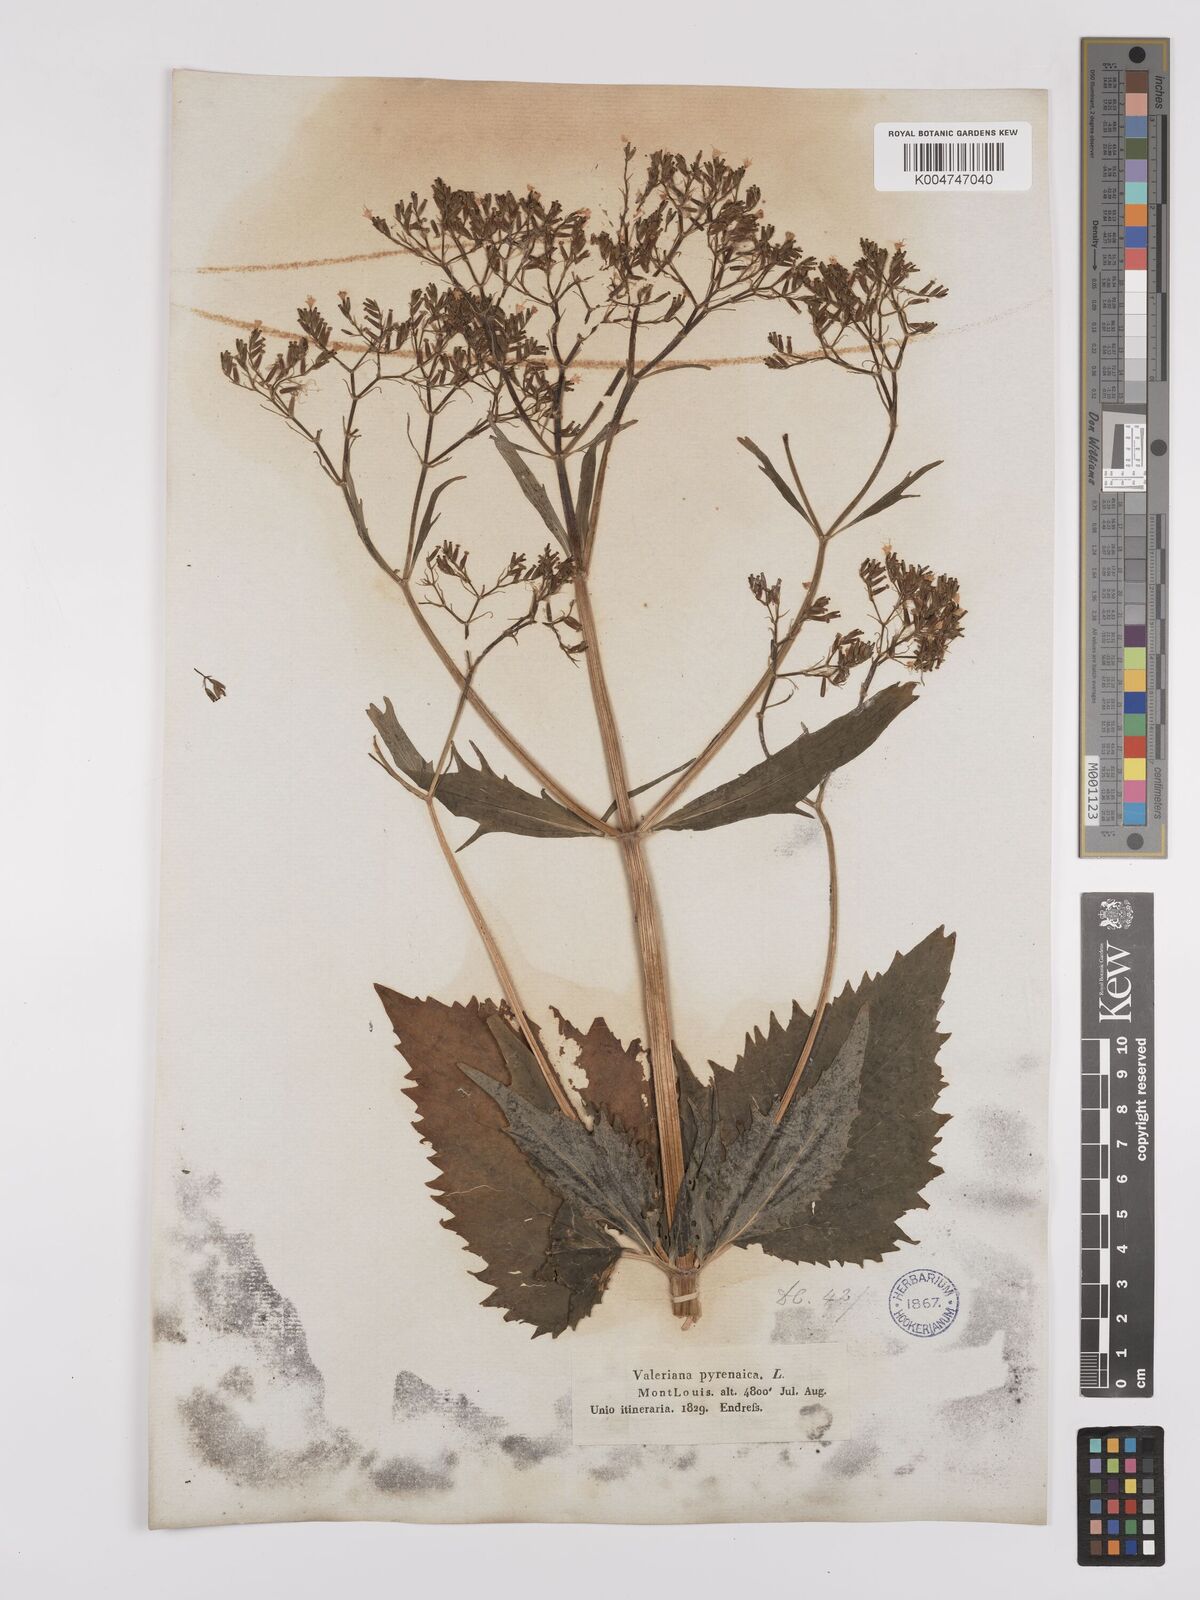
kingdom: Plantae
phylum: Tracheophyta
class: Magnoliopsida
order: Dipsacales
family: Caprifoliaceae
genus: Valeriana
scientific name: Valeriana pyrenaica
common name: Pyrenean valerian
